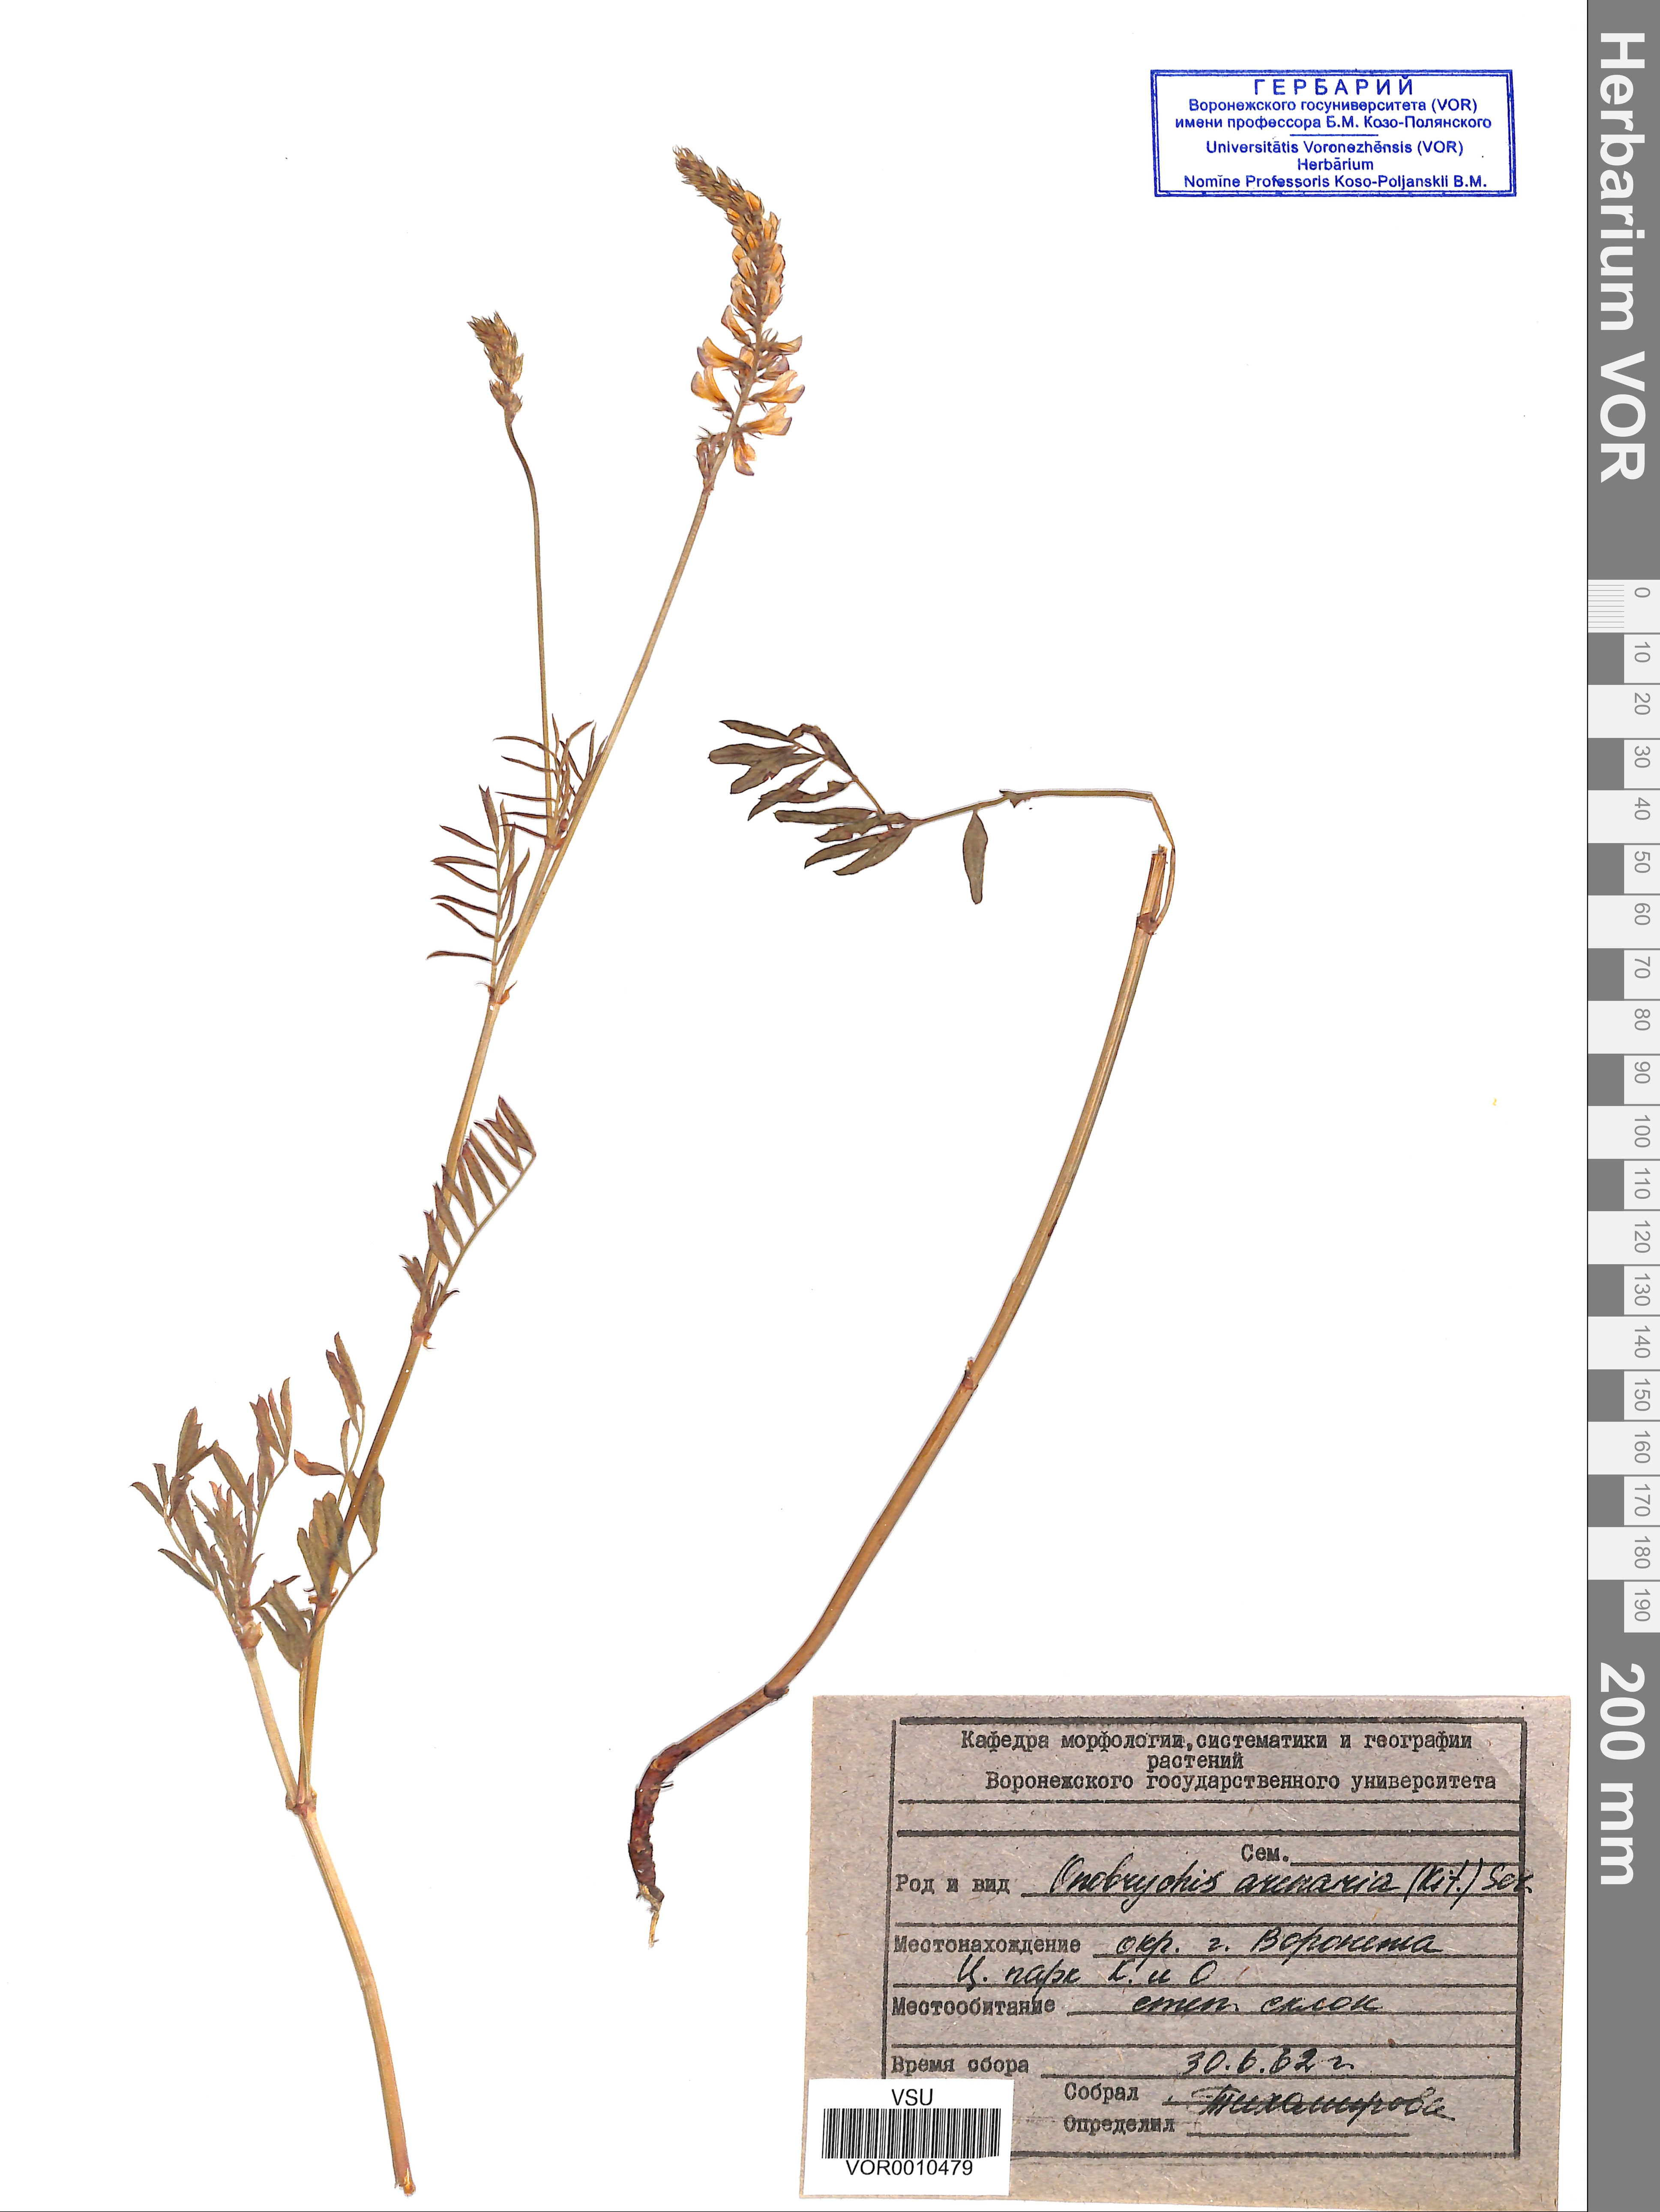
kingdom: Plantae
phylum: Tracheophyta
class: Magnoliopsida
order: Fabales
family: Fabaceae
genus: Onobrychis
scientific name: Onobrychis arenaria
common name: Sand esparcet
